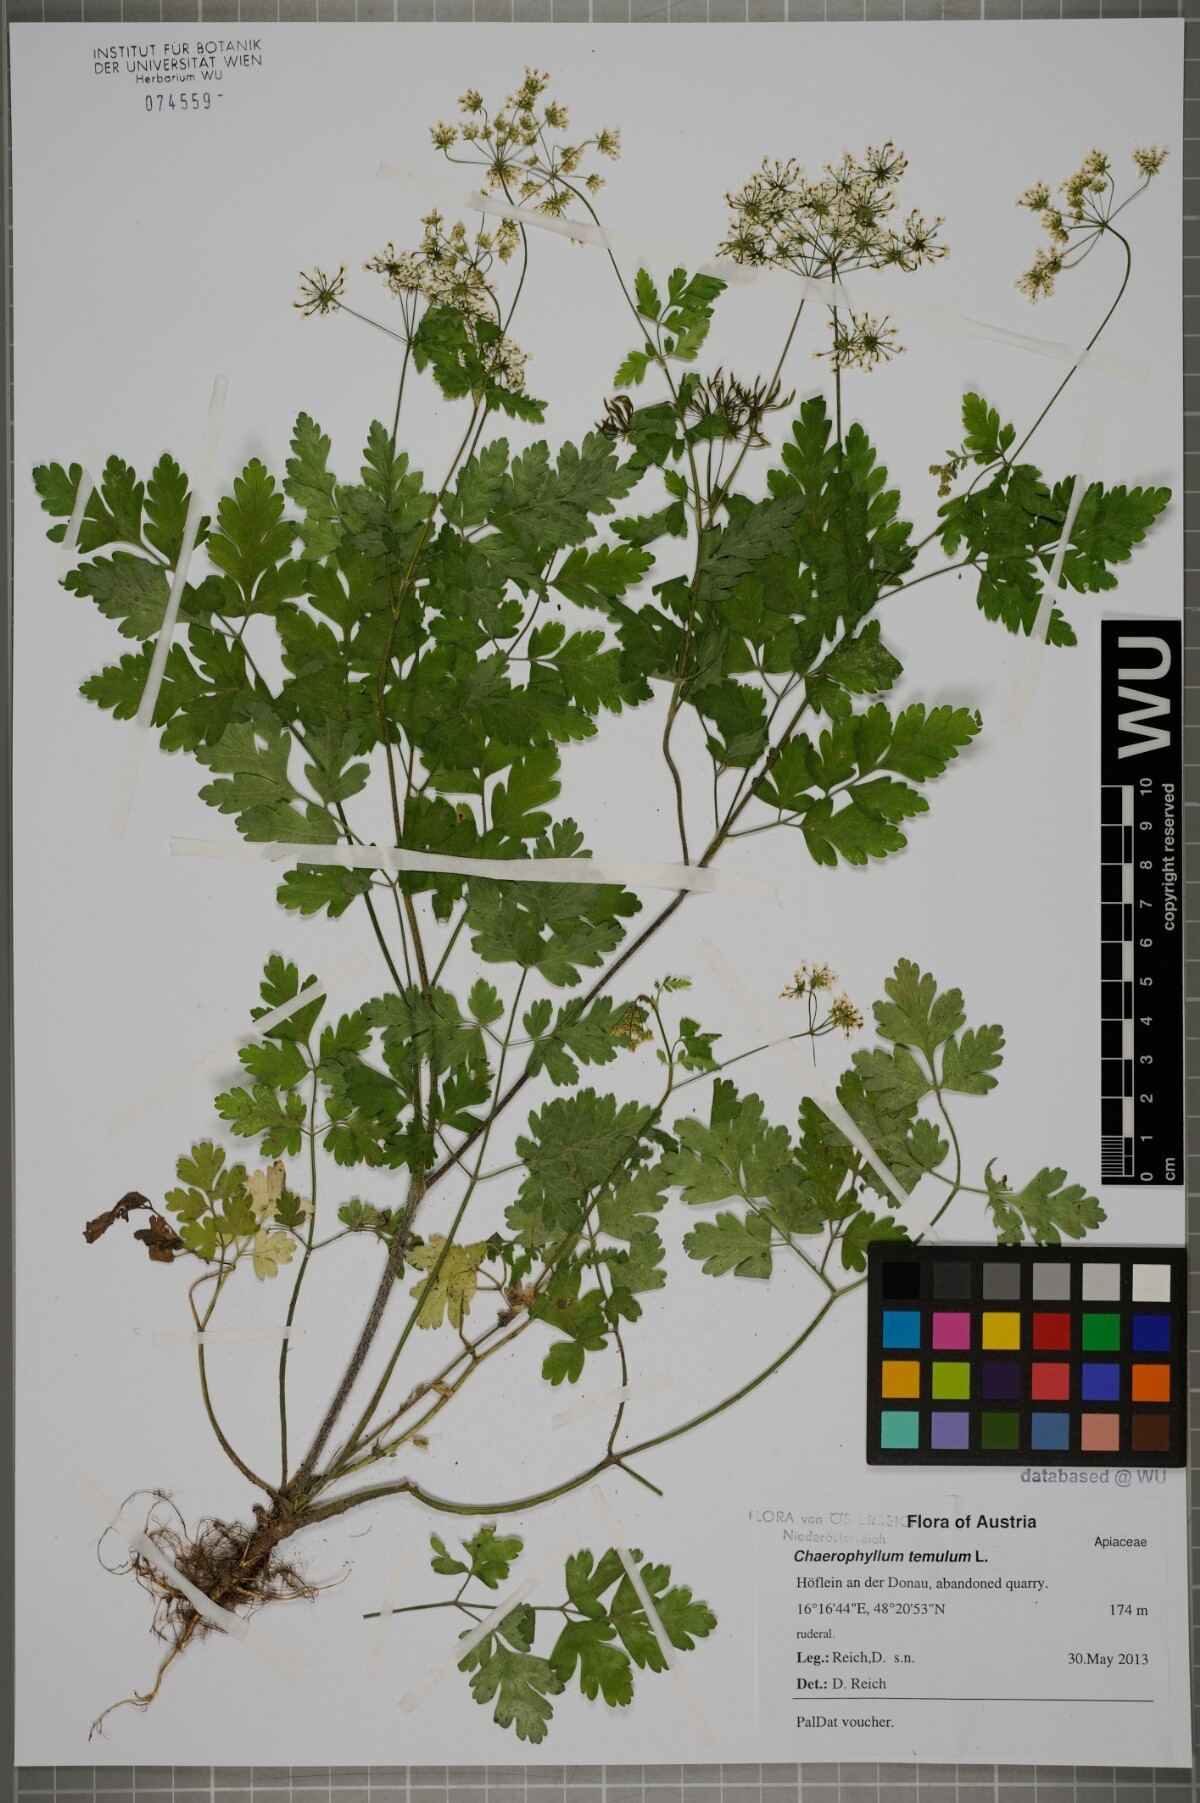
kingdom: Plantae
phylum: Tracheophyta
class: Magnoliopsida
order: Apiales
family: Apiaceae
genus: Chaerophyllum
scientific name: Chaerophyllum temulum
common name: Rough chervil
